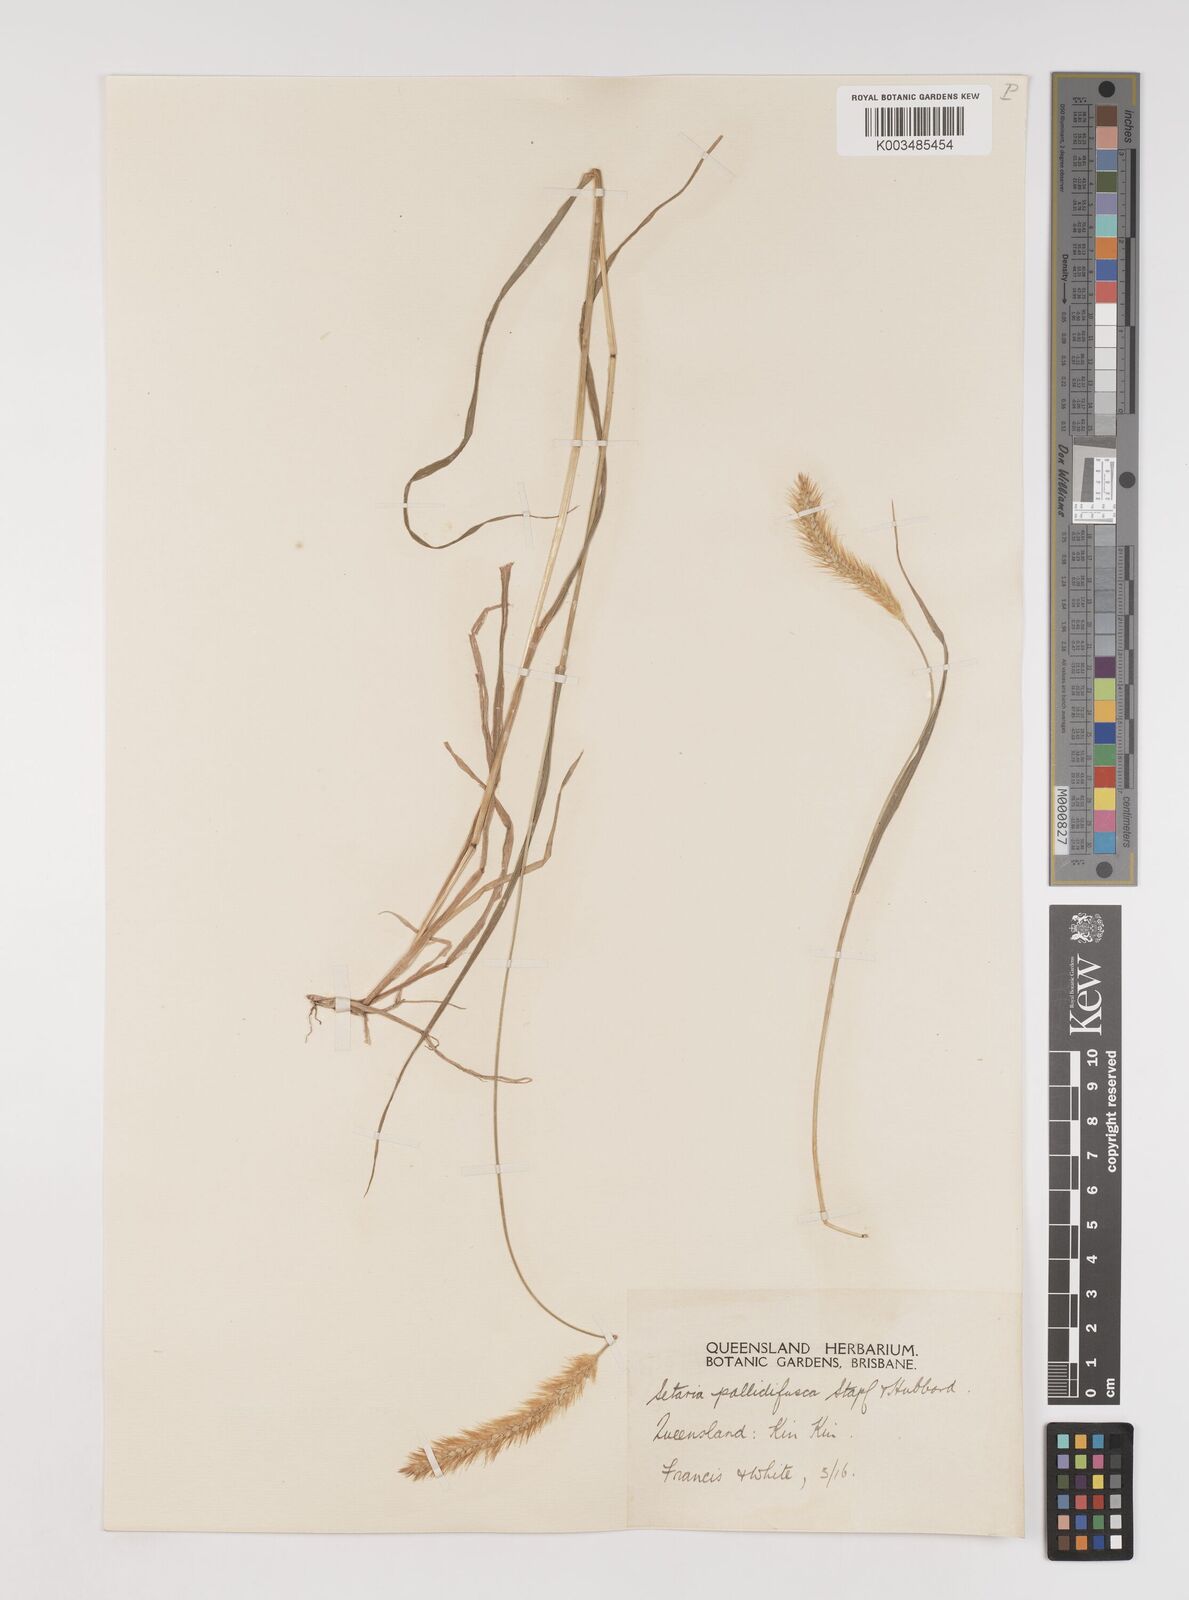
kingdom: Plantae
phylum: Tracheophyta
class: Liliopsida
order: Poales
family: Poaceae
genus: Setaria
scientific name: Setaria pumila
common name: Yellow bristle-grass
